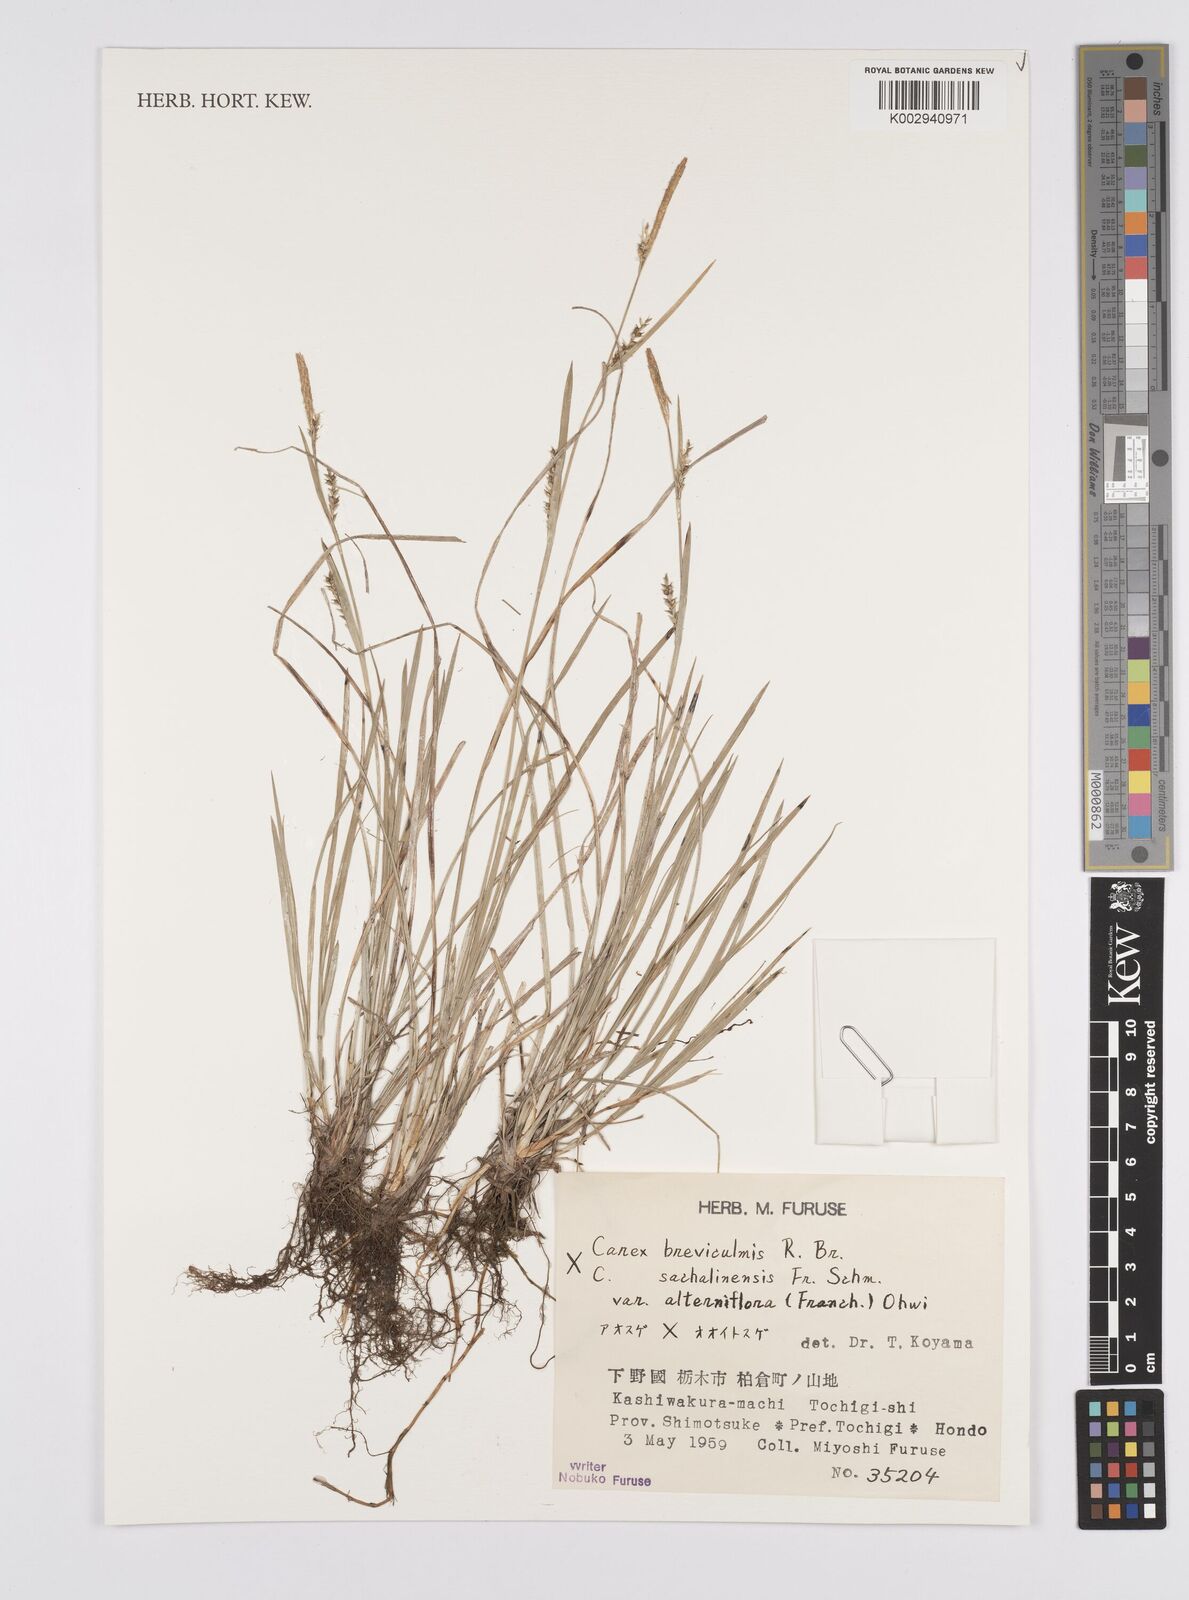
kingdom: Plantae
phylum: Tracheophyta
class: Liliopsida
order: Poales
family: Cyperaceae
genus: Carex
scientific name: Carex breviculmis
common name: Asian shortstem sedge
